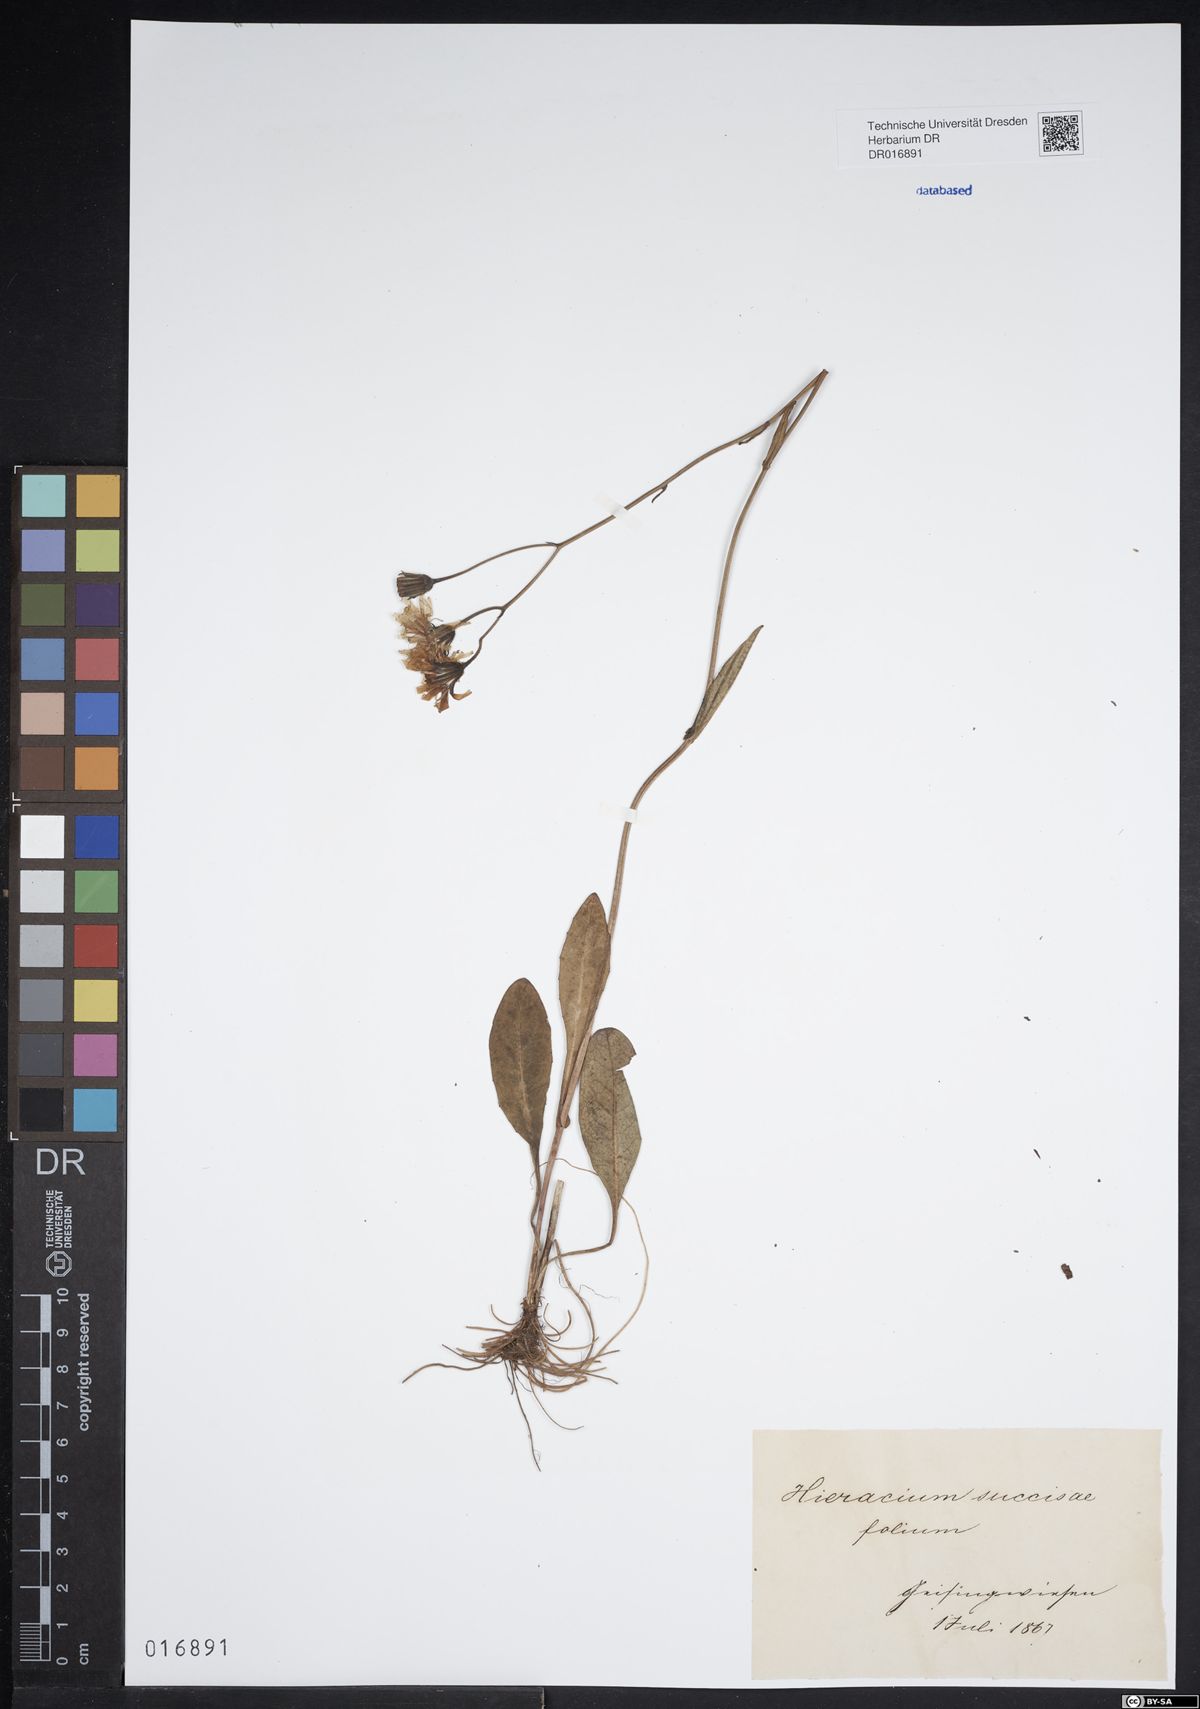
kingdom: Plantae
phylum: Tracheophyta
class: Magnoliopsida
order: Asterales
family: Asteraceae
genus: Crepis
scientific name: Crepis mollis
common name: Northern hawk's-beard
